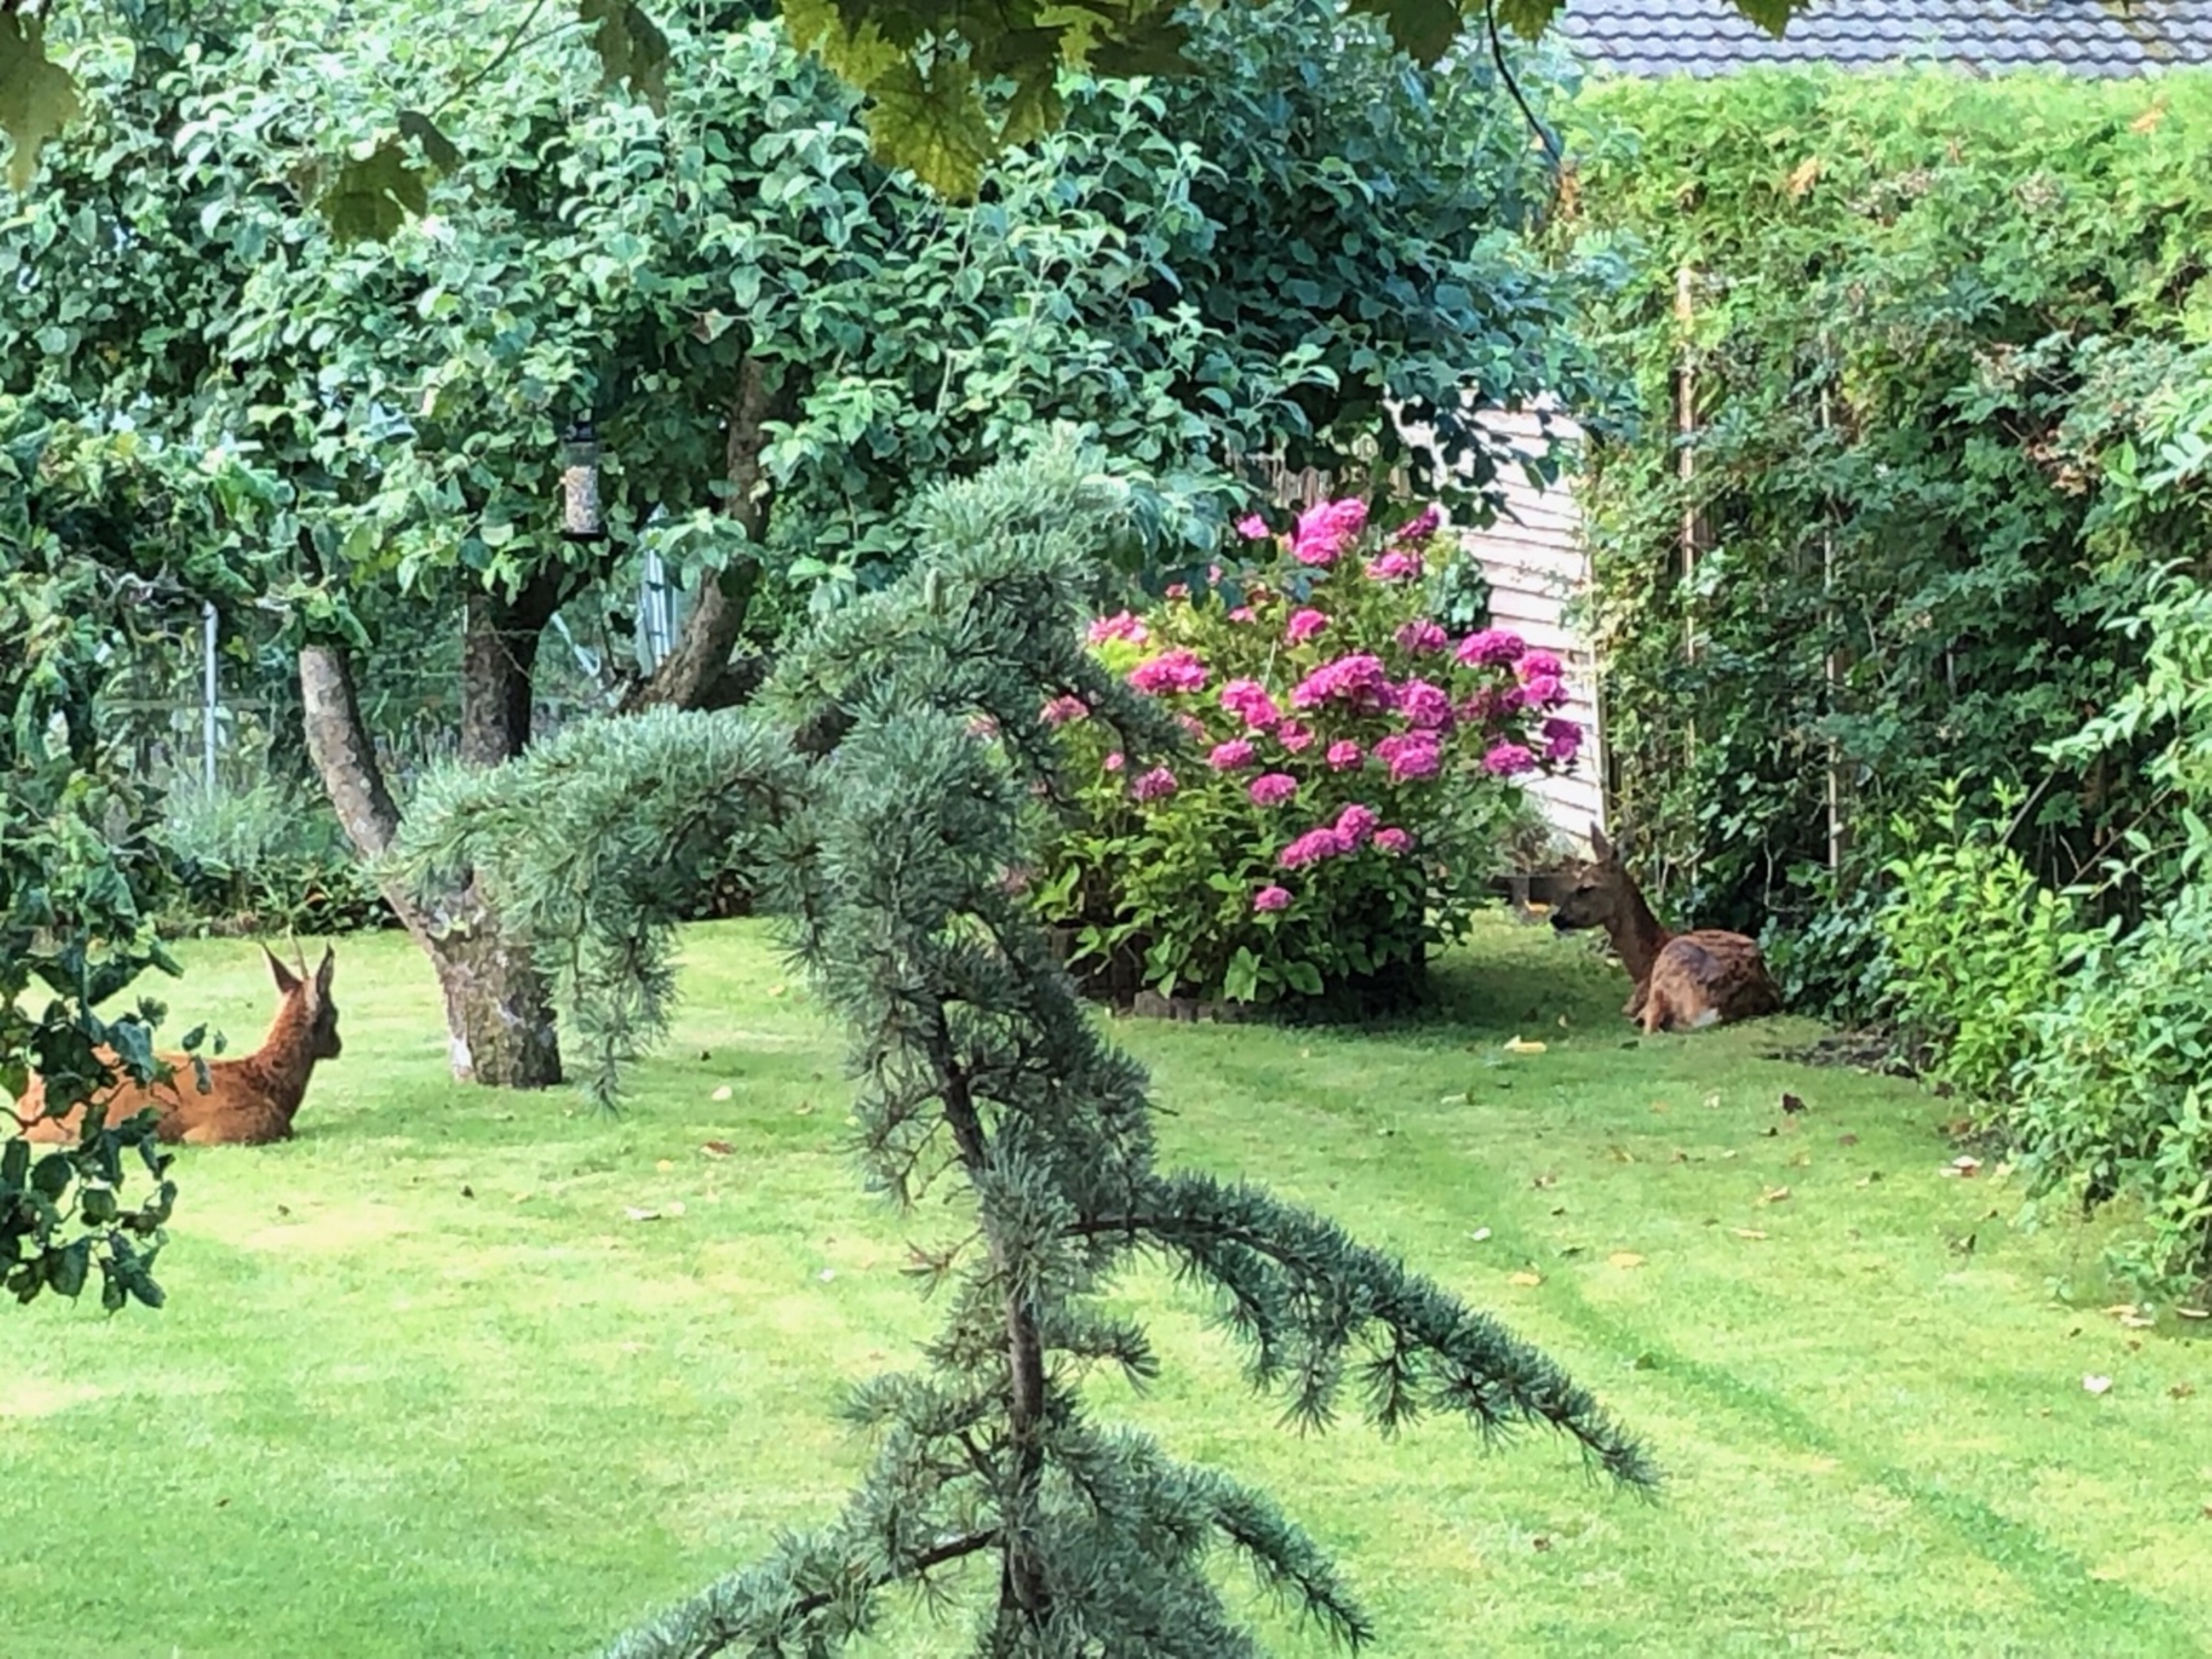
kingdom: Animalia
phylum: Chordata
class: Mammalia
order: Artiodactyla
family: Cervidae
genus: Capreolus
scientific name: Capreolus capreolus
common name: Rådyr
